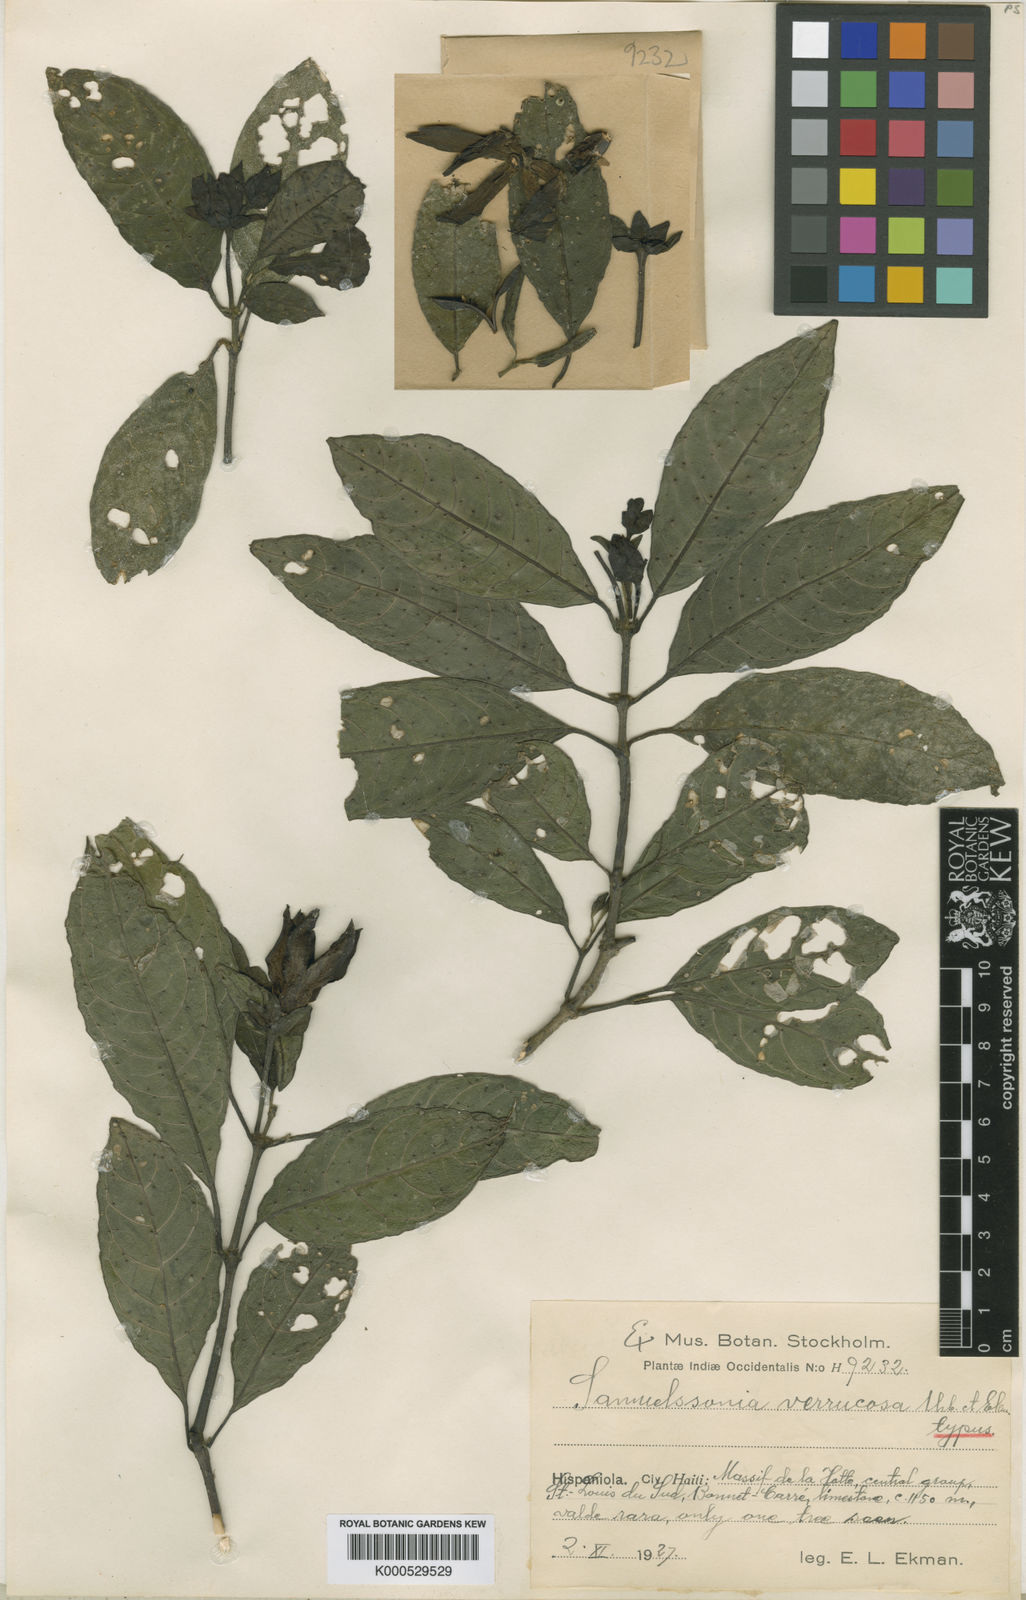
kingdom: Plantae
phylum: Tracheophyta
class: Magnoliopsida
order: Lamiales
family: Acanthaceae
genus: Samuelssonia
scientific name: Samuelssonia verrucosa
